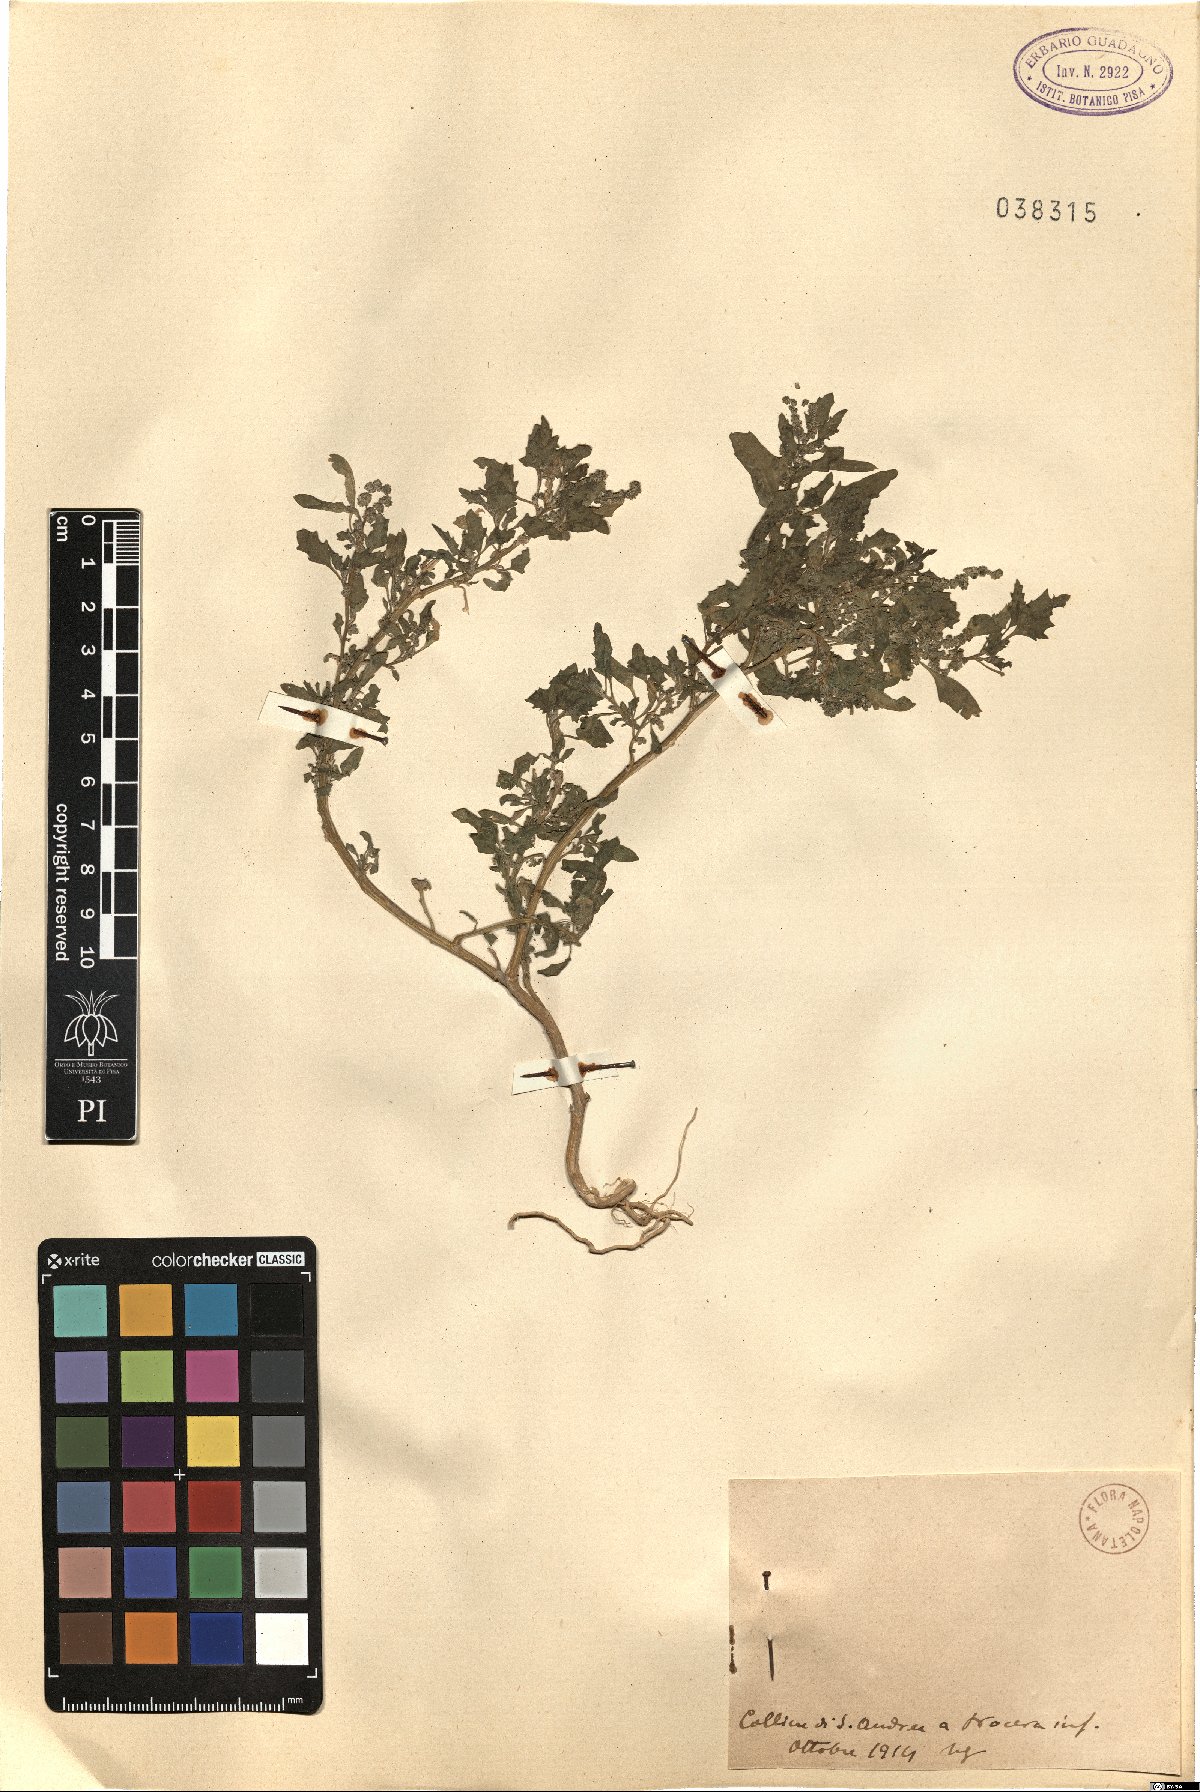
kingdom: Plantae
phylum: Tracheophyta
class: Magnoliopsida
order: Caryophyllales
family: Amaranthaceae
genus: Chenopodiastrum
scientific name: Chenopodiastrum murale
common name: Sowbane
